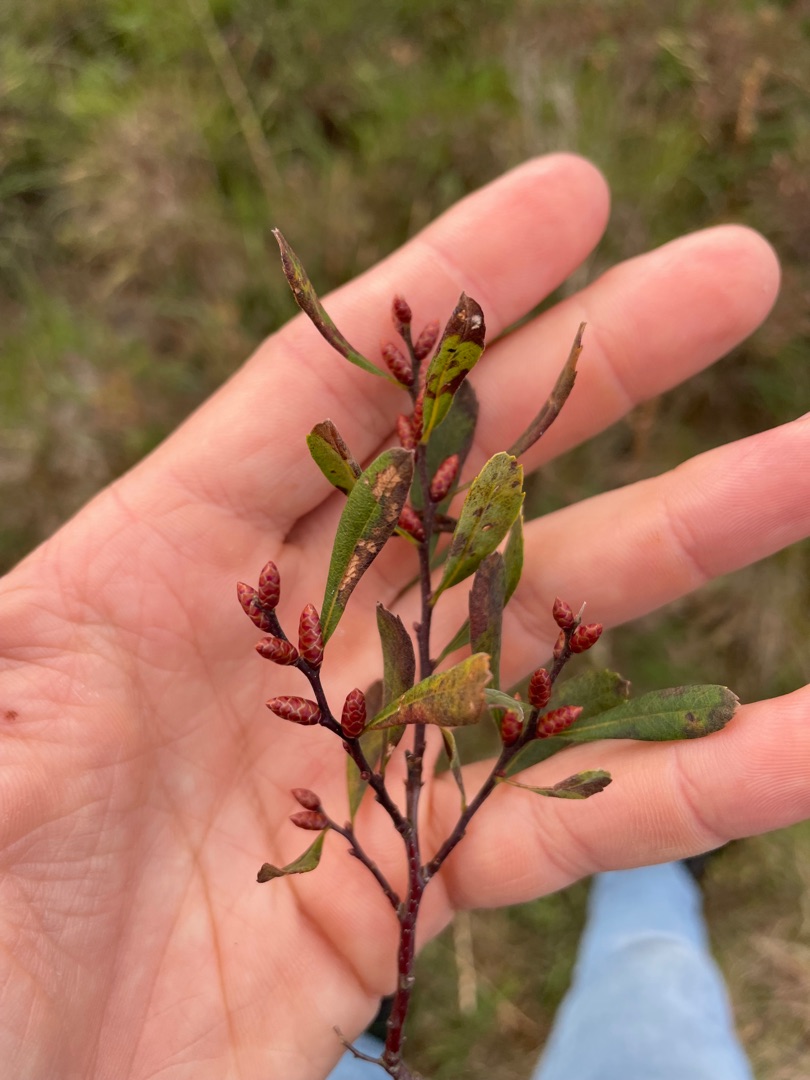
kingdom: Plantae
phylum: Tracheophyta
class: Magnoliopsida
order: Fagales
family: Myricaceae
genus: Myrica
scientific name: Myrica gale
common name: Pors
